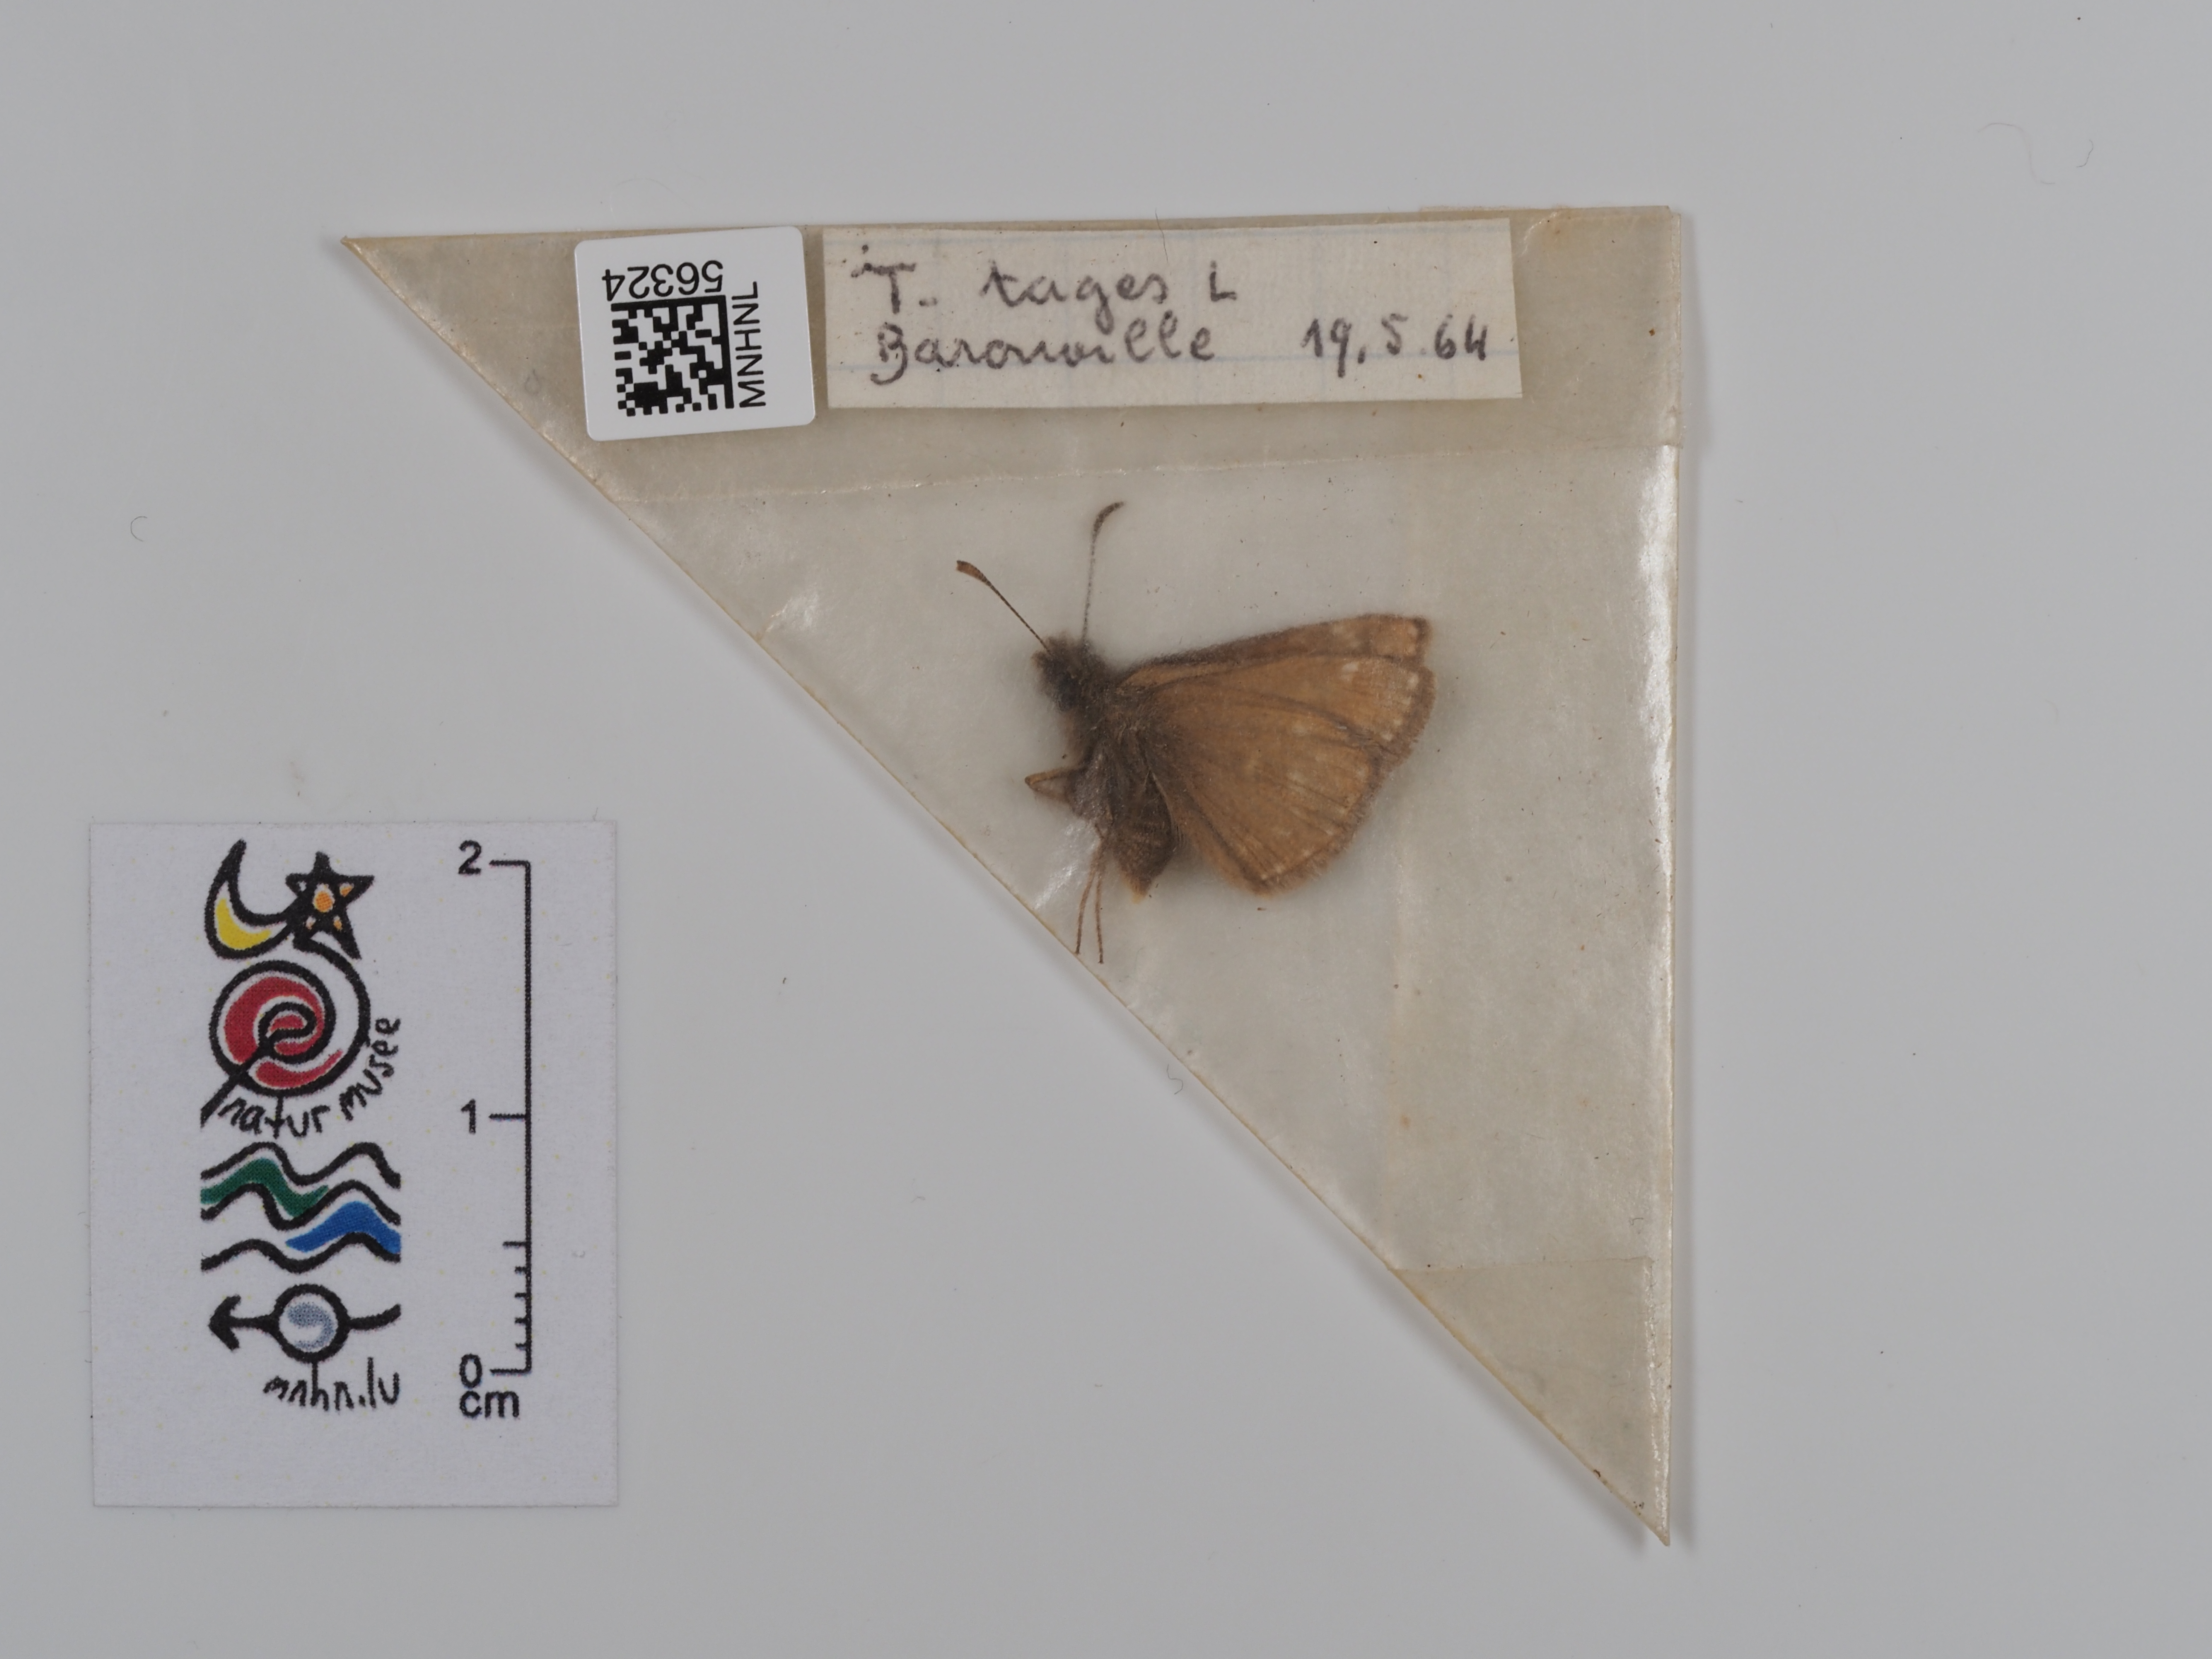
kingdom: Animalia
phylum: Arthropoda
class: Insecta
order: Lepidoptera
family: Hesperiidae
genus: Erynnis
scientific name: Erynnis tages
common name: Dingy skipper
